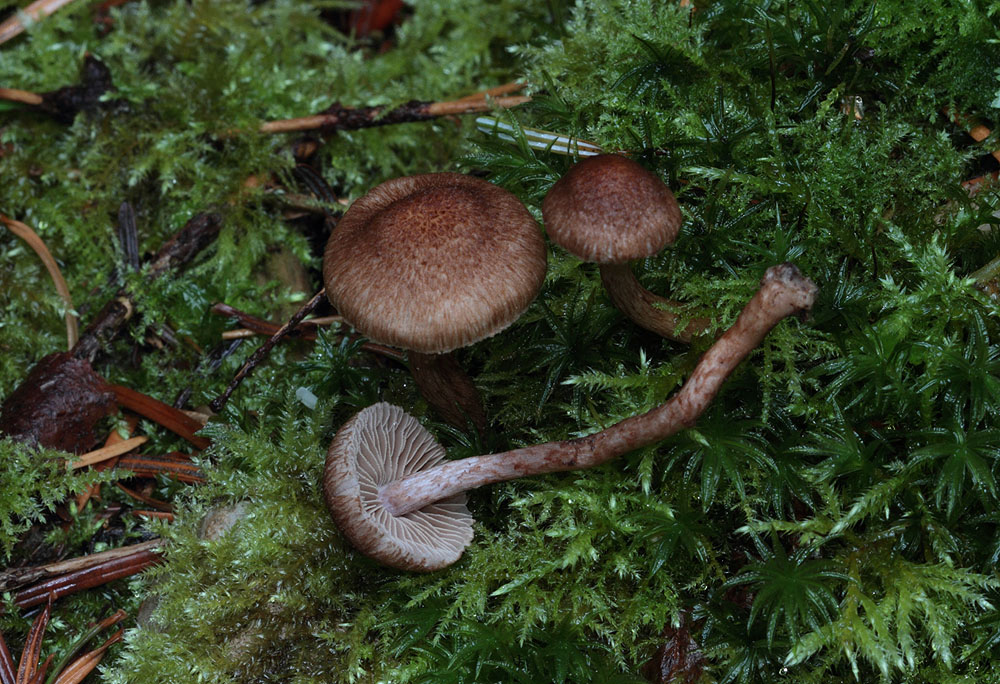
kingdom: Fungi
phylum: Basidiomycota
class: Agaricomycetes
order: Agaricales
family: Inocybaceae
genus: Inocybe
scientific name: Inocybe cincinnata
